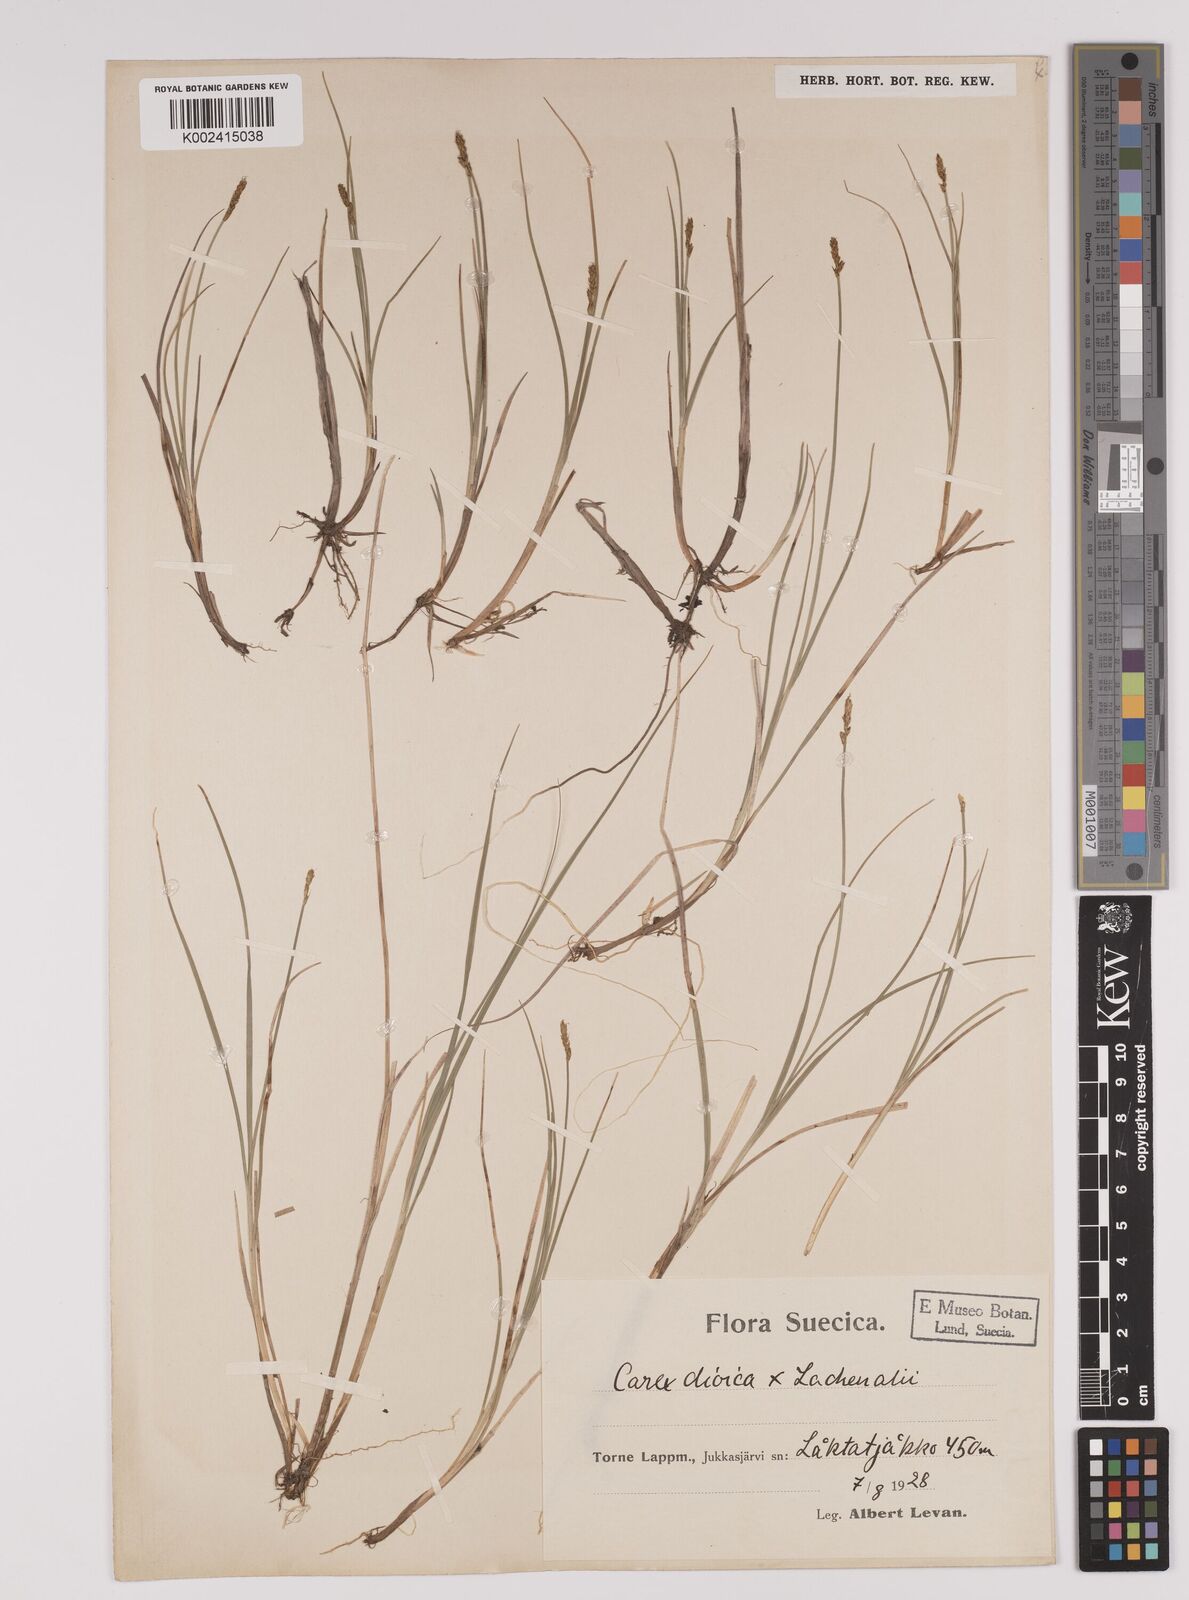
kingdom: Plantae
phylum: Tracheophyta
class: Liliopsida
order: Poales
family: Cyperaceae
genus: Carex
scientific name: Carex dioica
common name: Dioecious sedge
